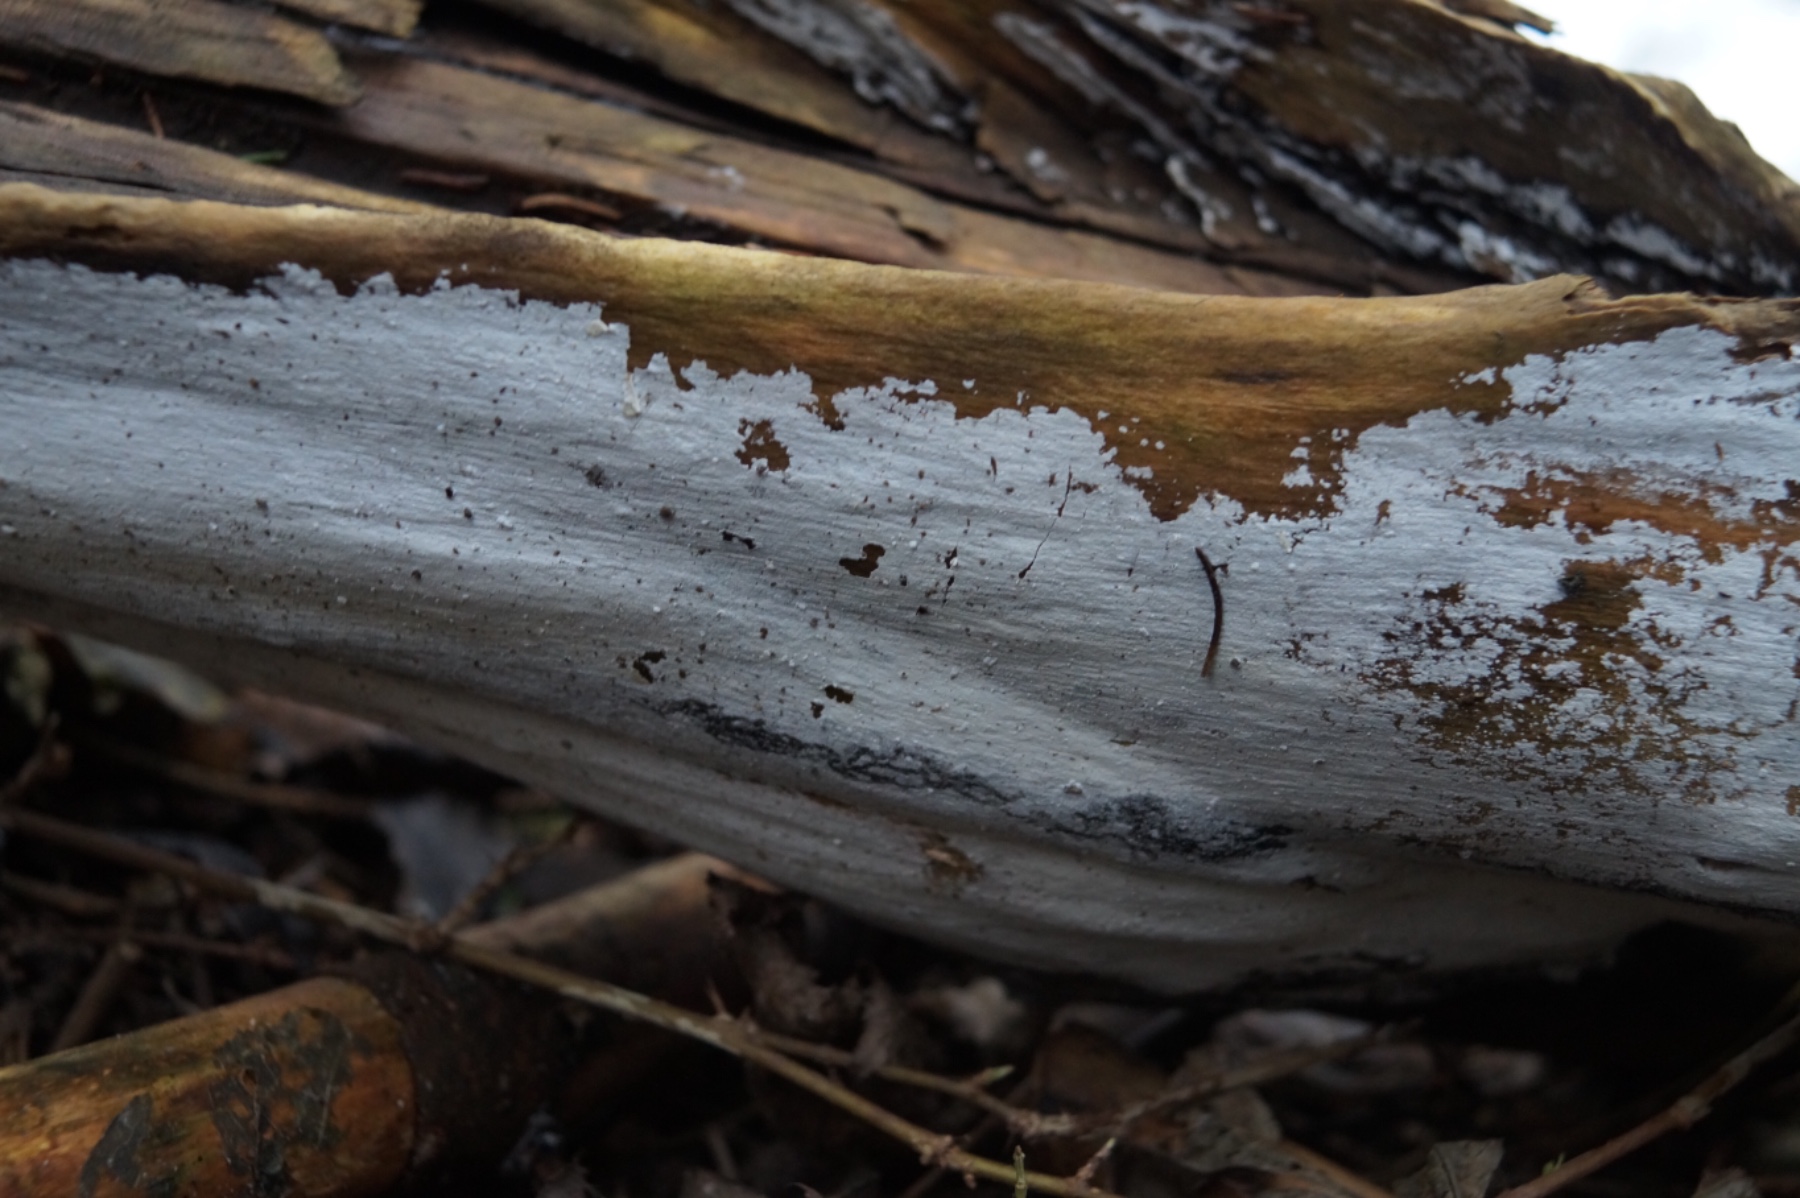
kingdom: Fungi
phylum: Basidiomycota
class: Agaricomycetes
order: Corticiales
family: Corticiaceae
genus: Lyomyces
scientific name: Lyomyces sambuci
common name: almindelig hyldehinde
